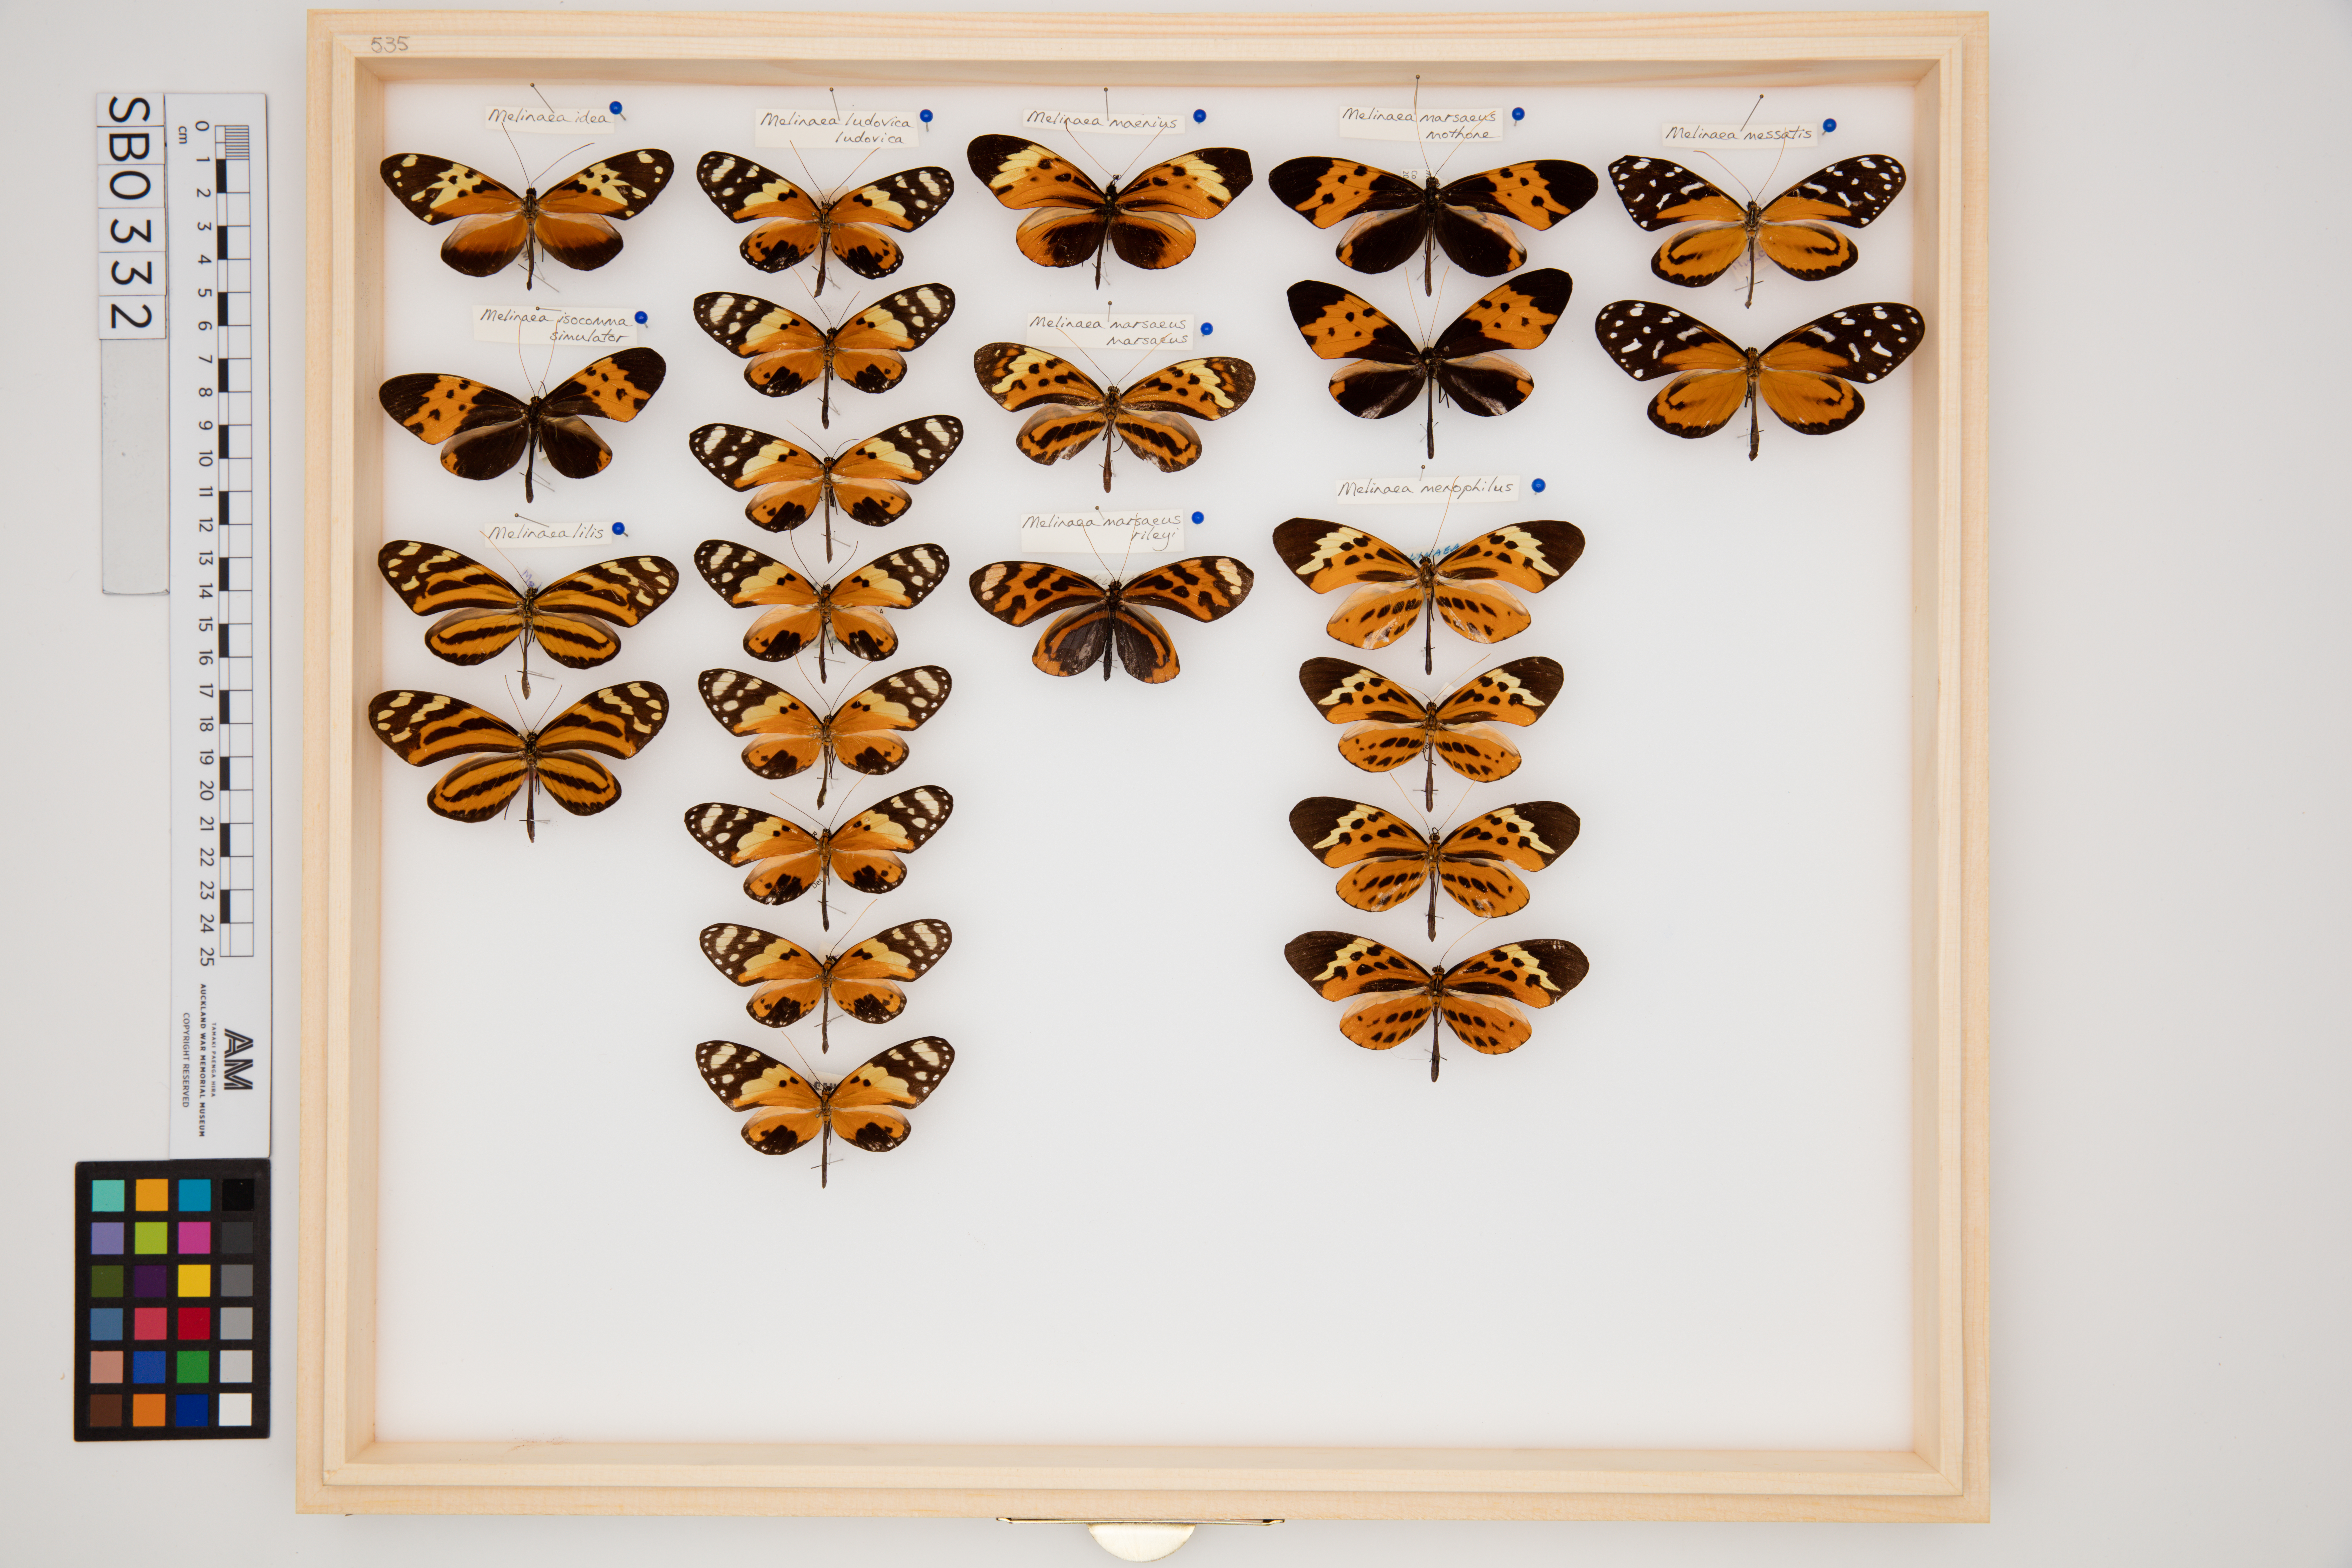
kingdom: Animalia
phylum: Arthropoda
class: Insecta
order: Lepidoptera
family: Nymphalidae
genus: Melinaea
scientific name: Melinaea menophilus
